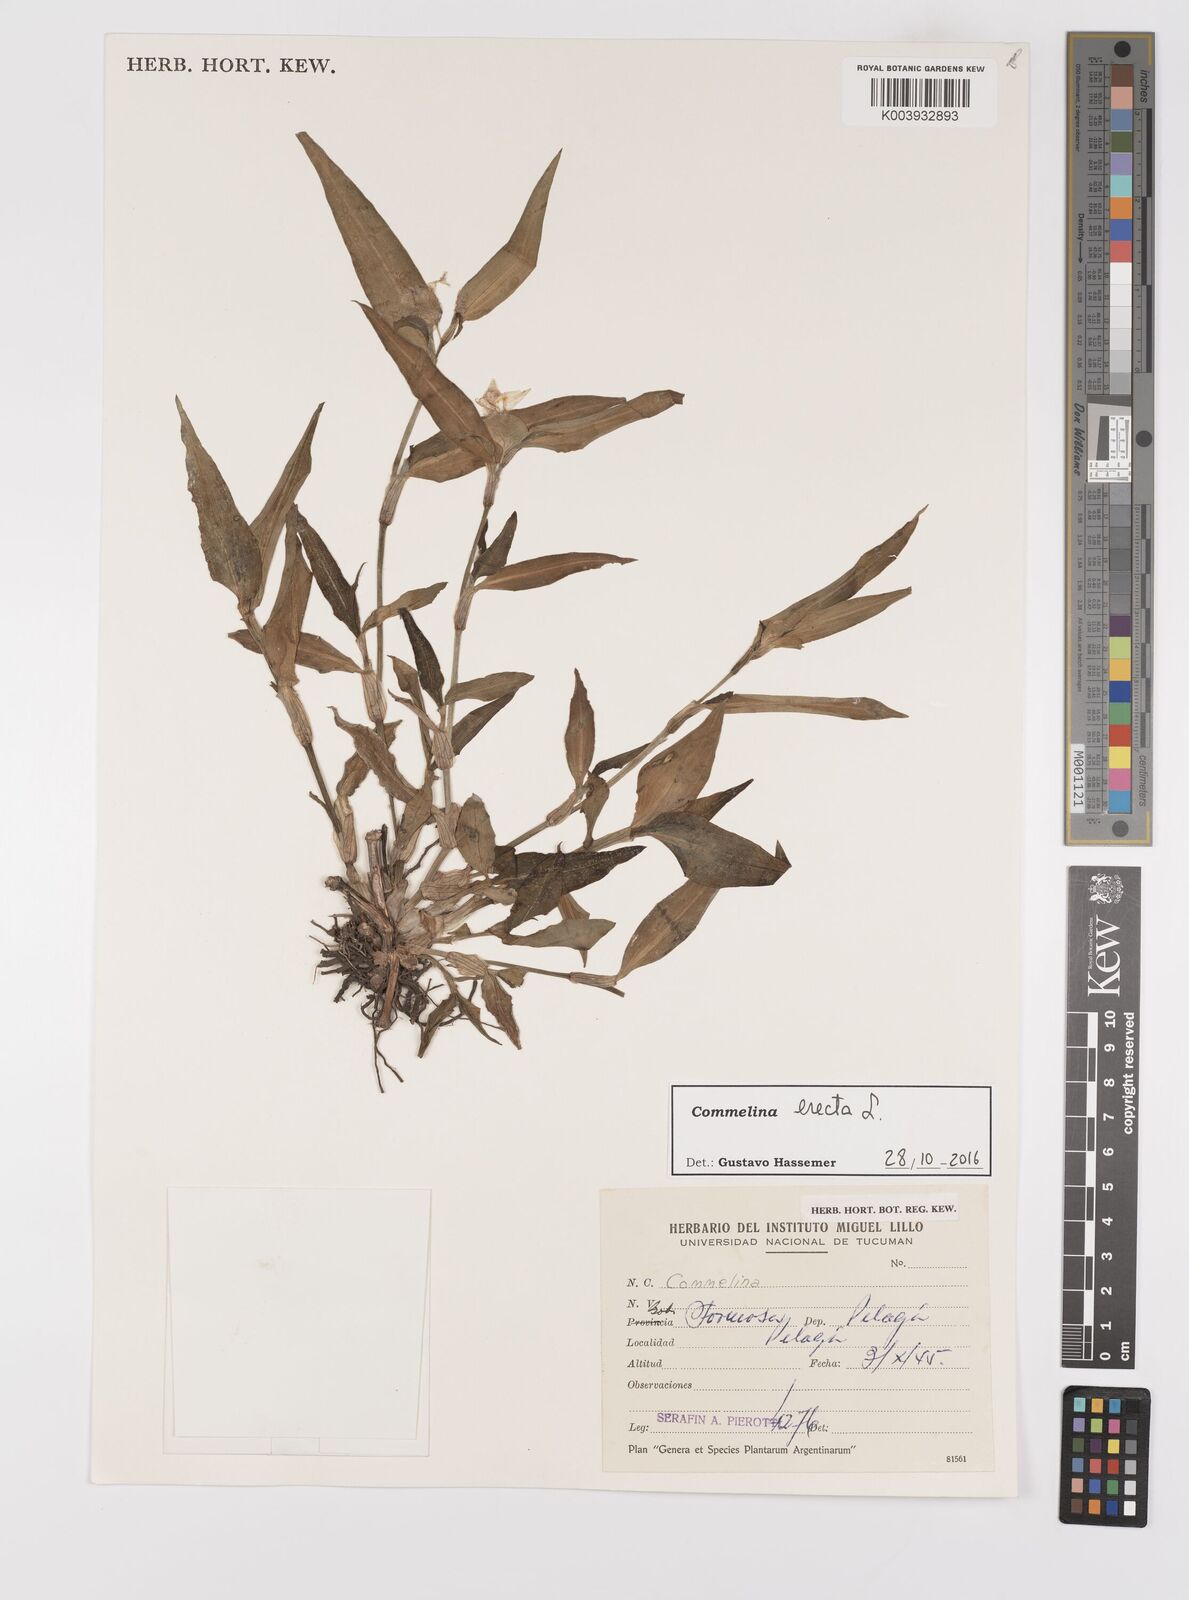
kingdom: Plantae
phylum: Tracheophyta
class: Liliopsida
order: Commelinales
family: Commelinaceae
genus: Commelina
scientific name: Commelina erecta
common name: Blousel blommetjie
